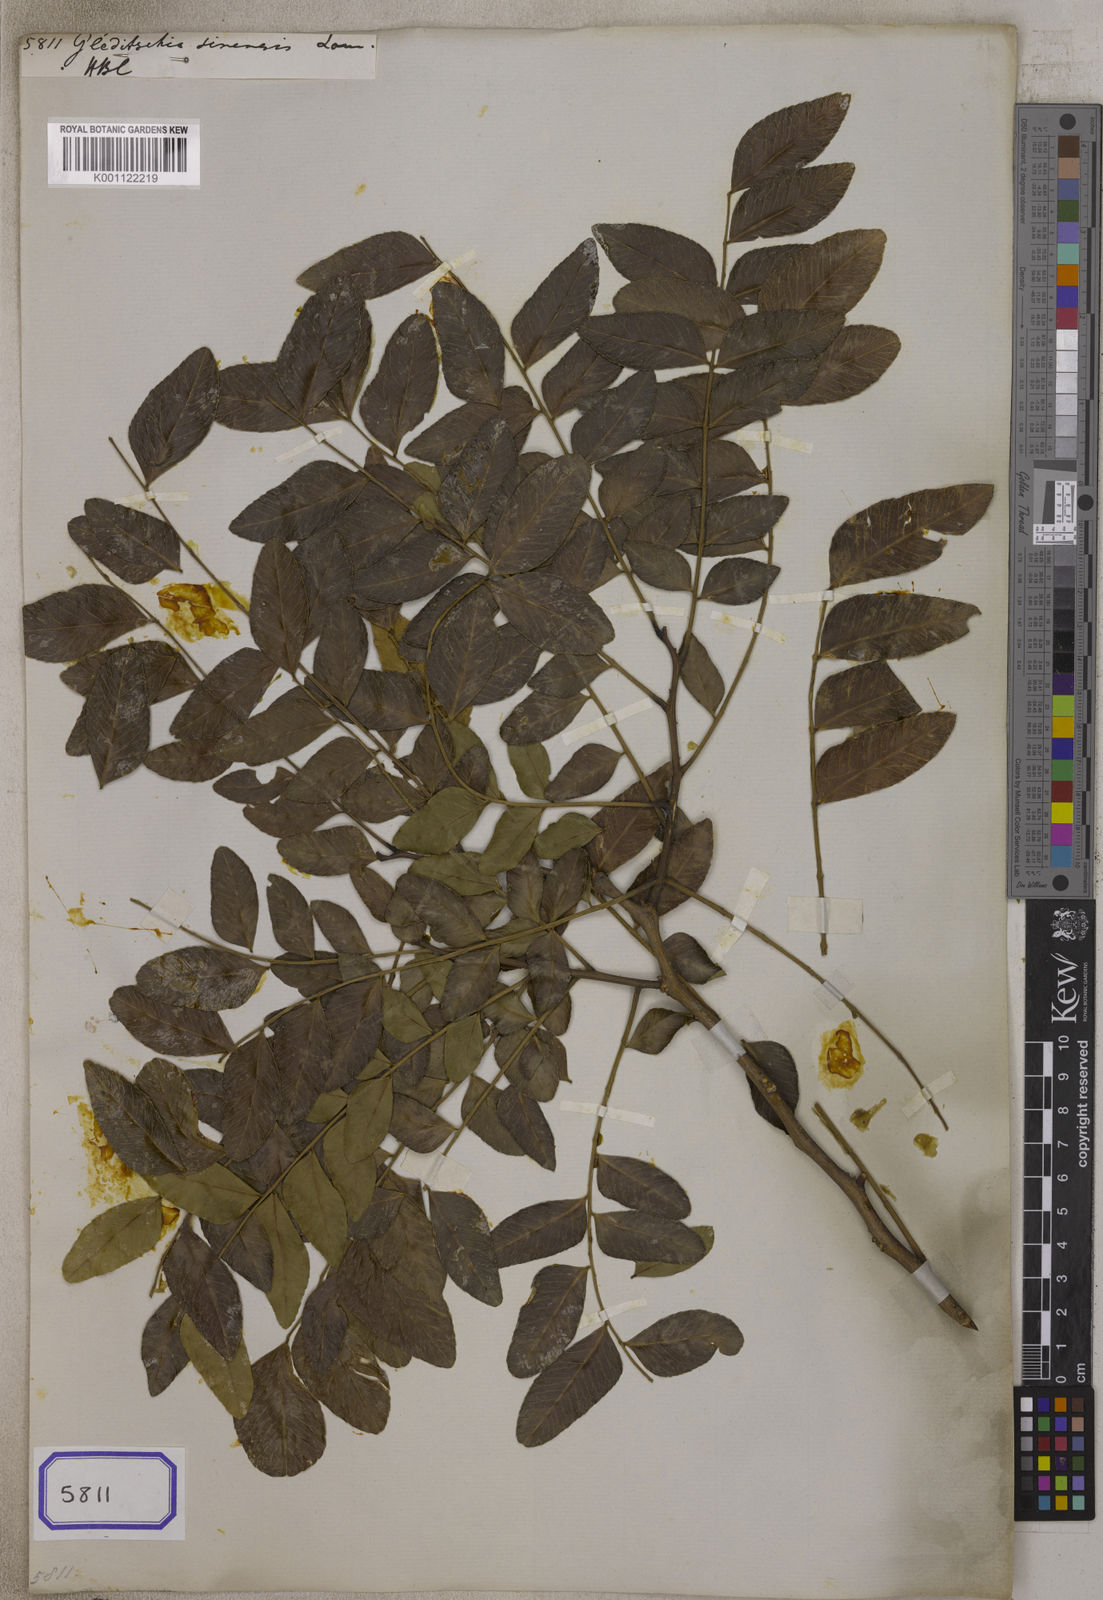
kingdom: Plantae
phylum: Tracheophyta
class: Magnoliopsida
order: Fabales
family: Fabaceae
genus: Gleditsia
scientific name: Gleditsia sinensis
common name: Chinese honey-locust
